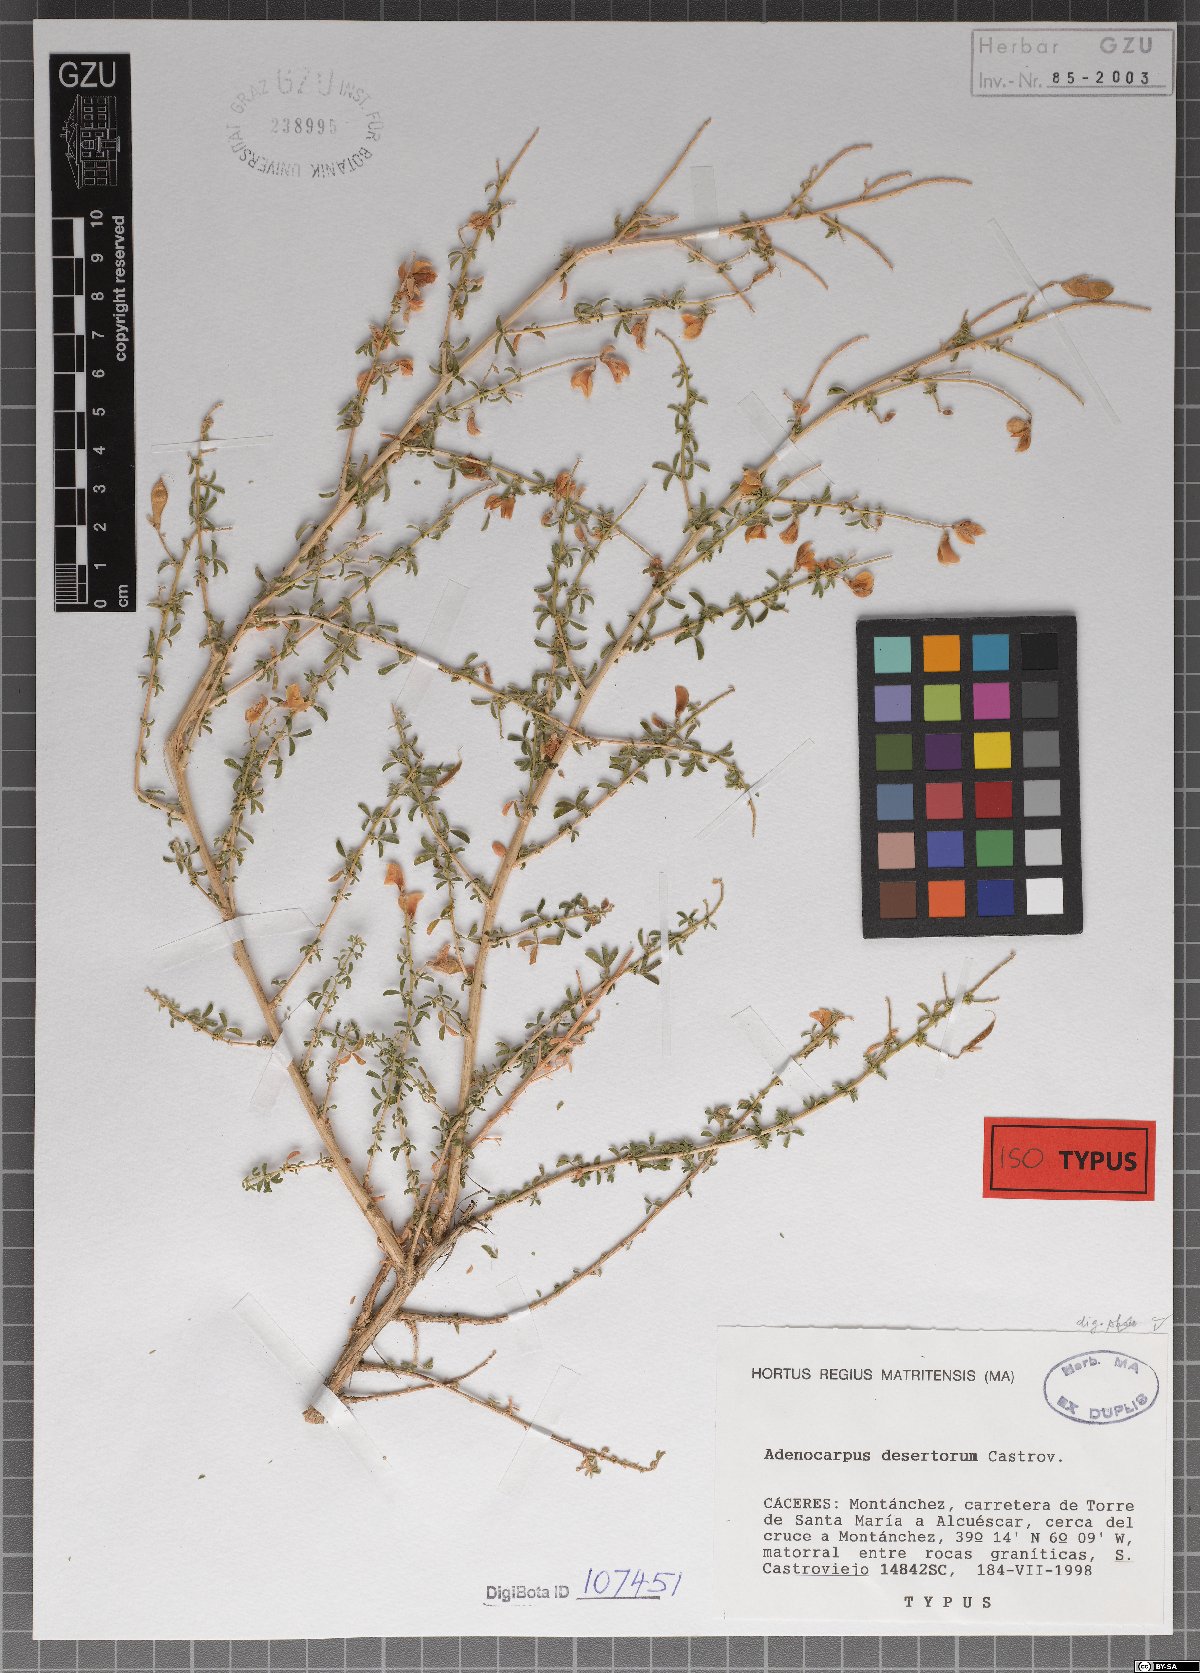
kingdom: Plantae
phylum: Tracheophyta
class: Magnoliopsida
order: Fabales
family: Fabaceae
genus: Adenocarpus
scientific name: Adenocarpus desertorum
